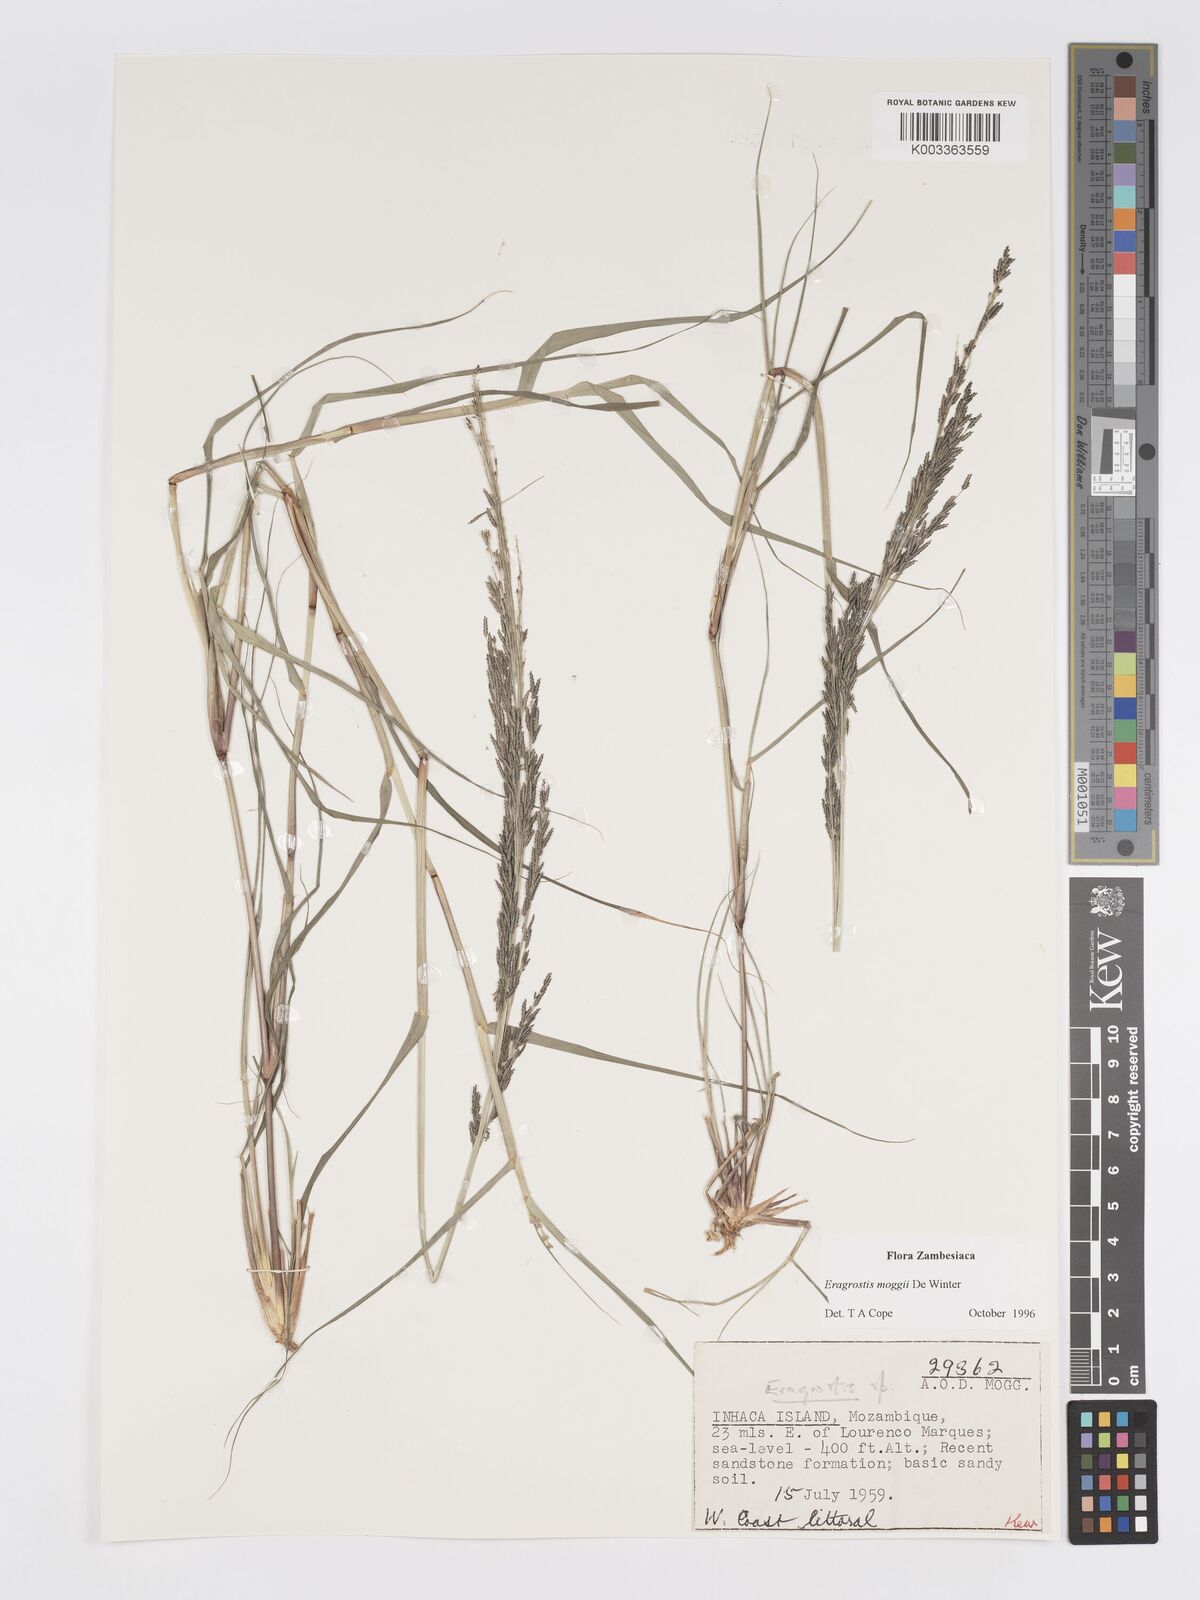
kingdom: Plantae
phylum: Tracheophyta
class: Liliopsida
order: Poales
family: Poaceae
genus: Eragrostis
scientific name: Eragrostis moggii
